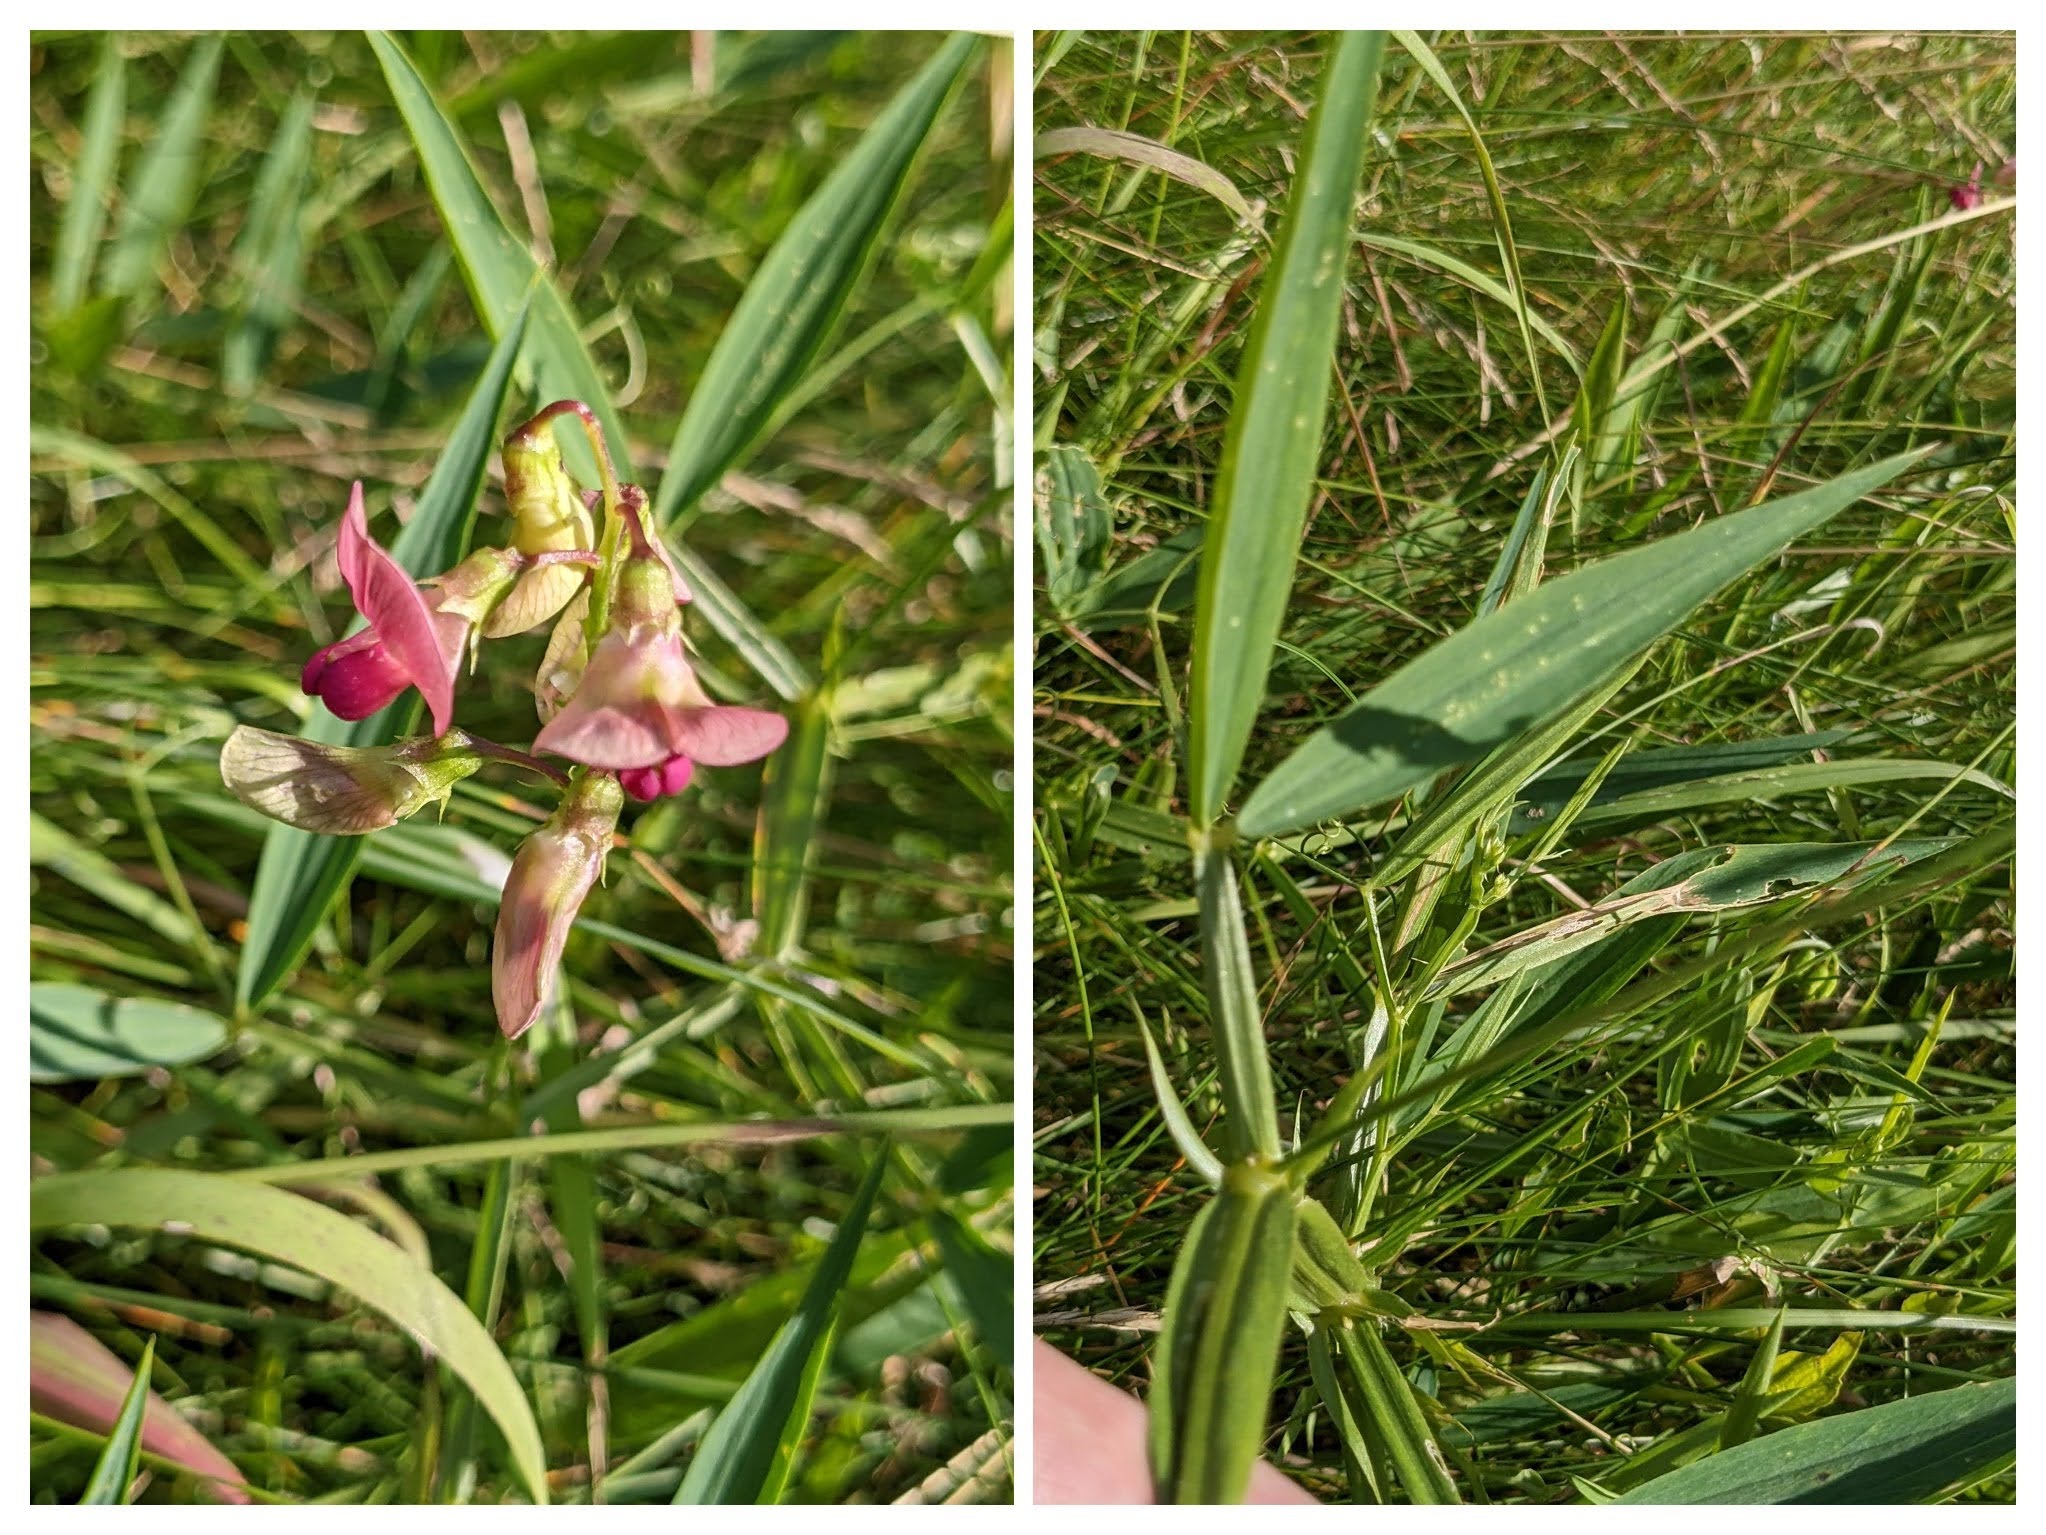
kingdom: Plantae
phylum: Tracheophyta
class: Magnoliopsida
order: Fabales
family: Fabaceae
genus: Lathyrus
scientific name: Lathyrus sylvestris
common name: Skov-fladbælg
